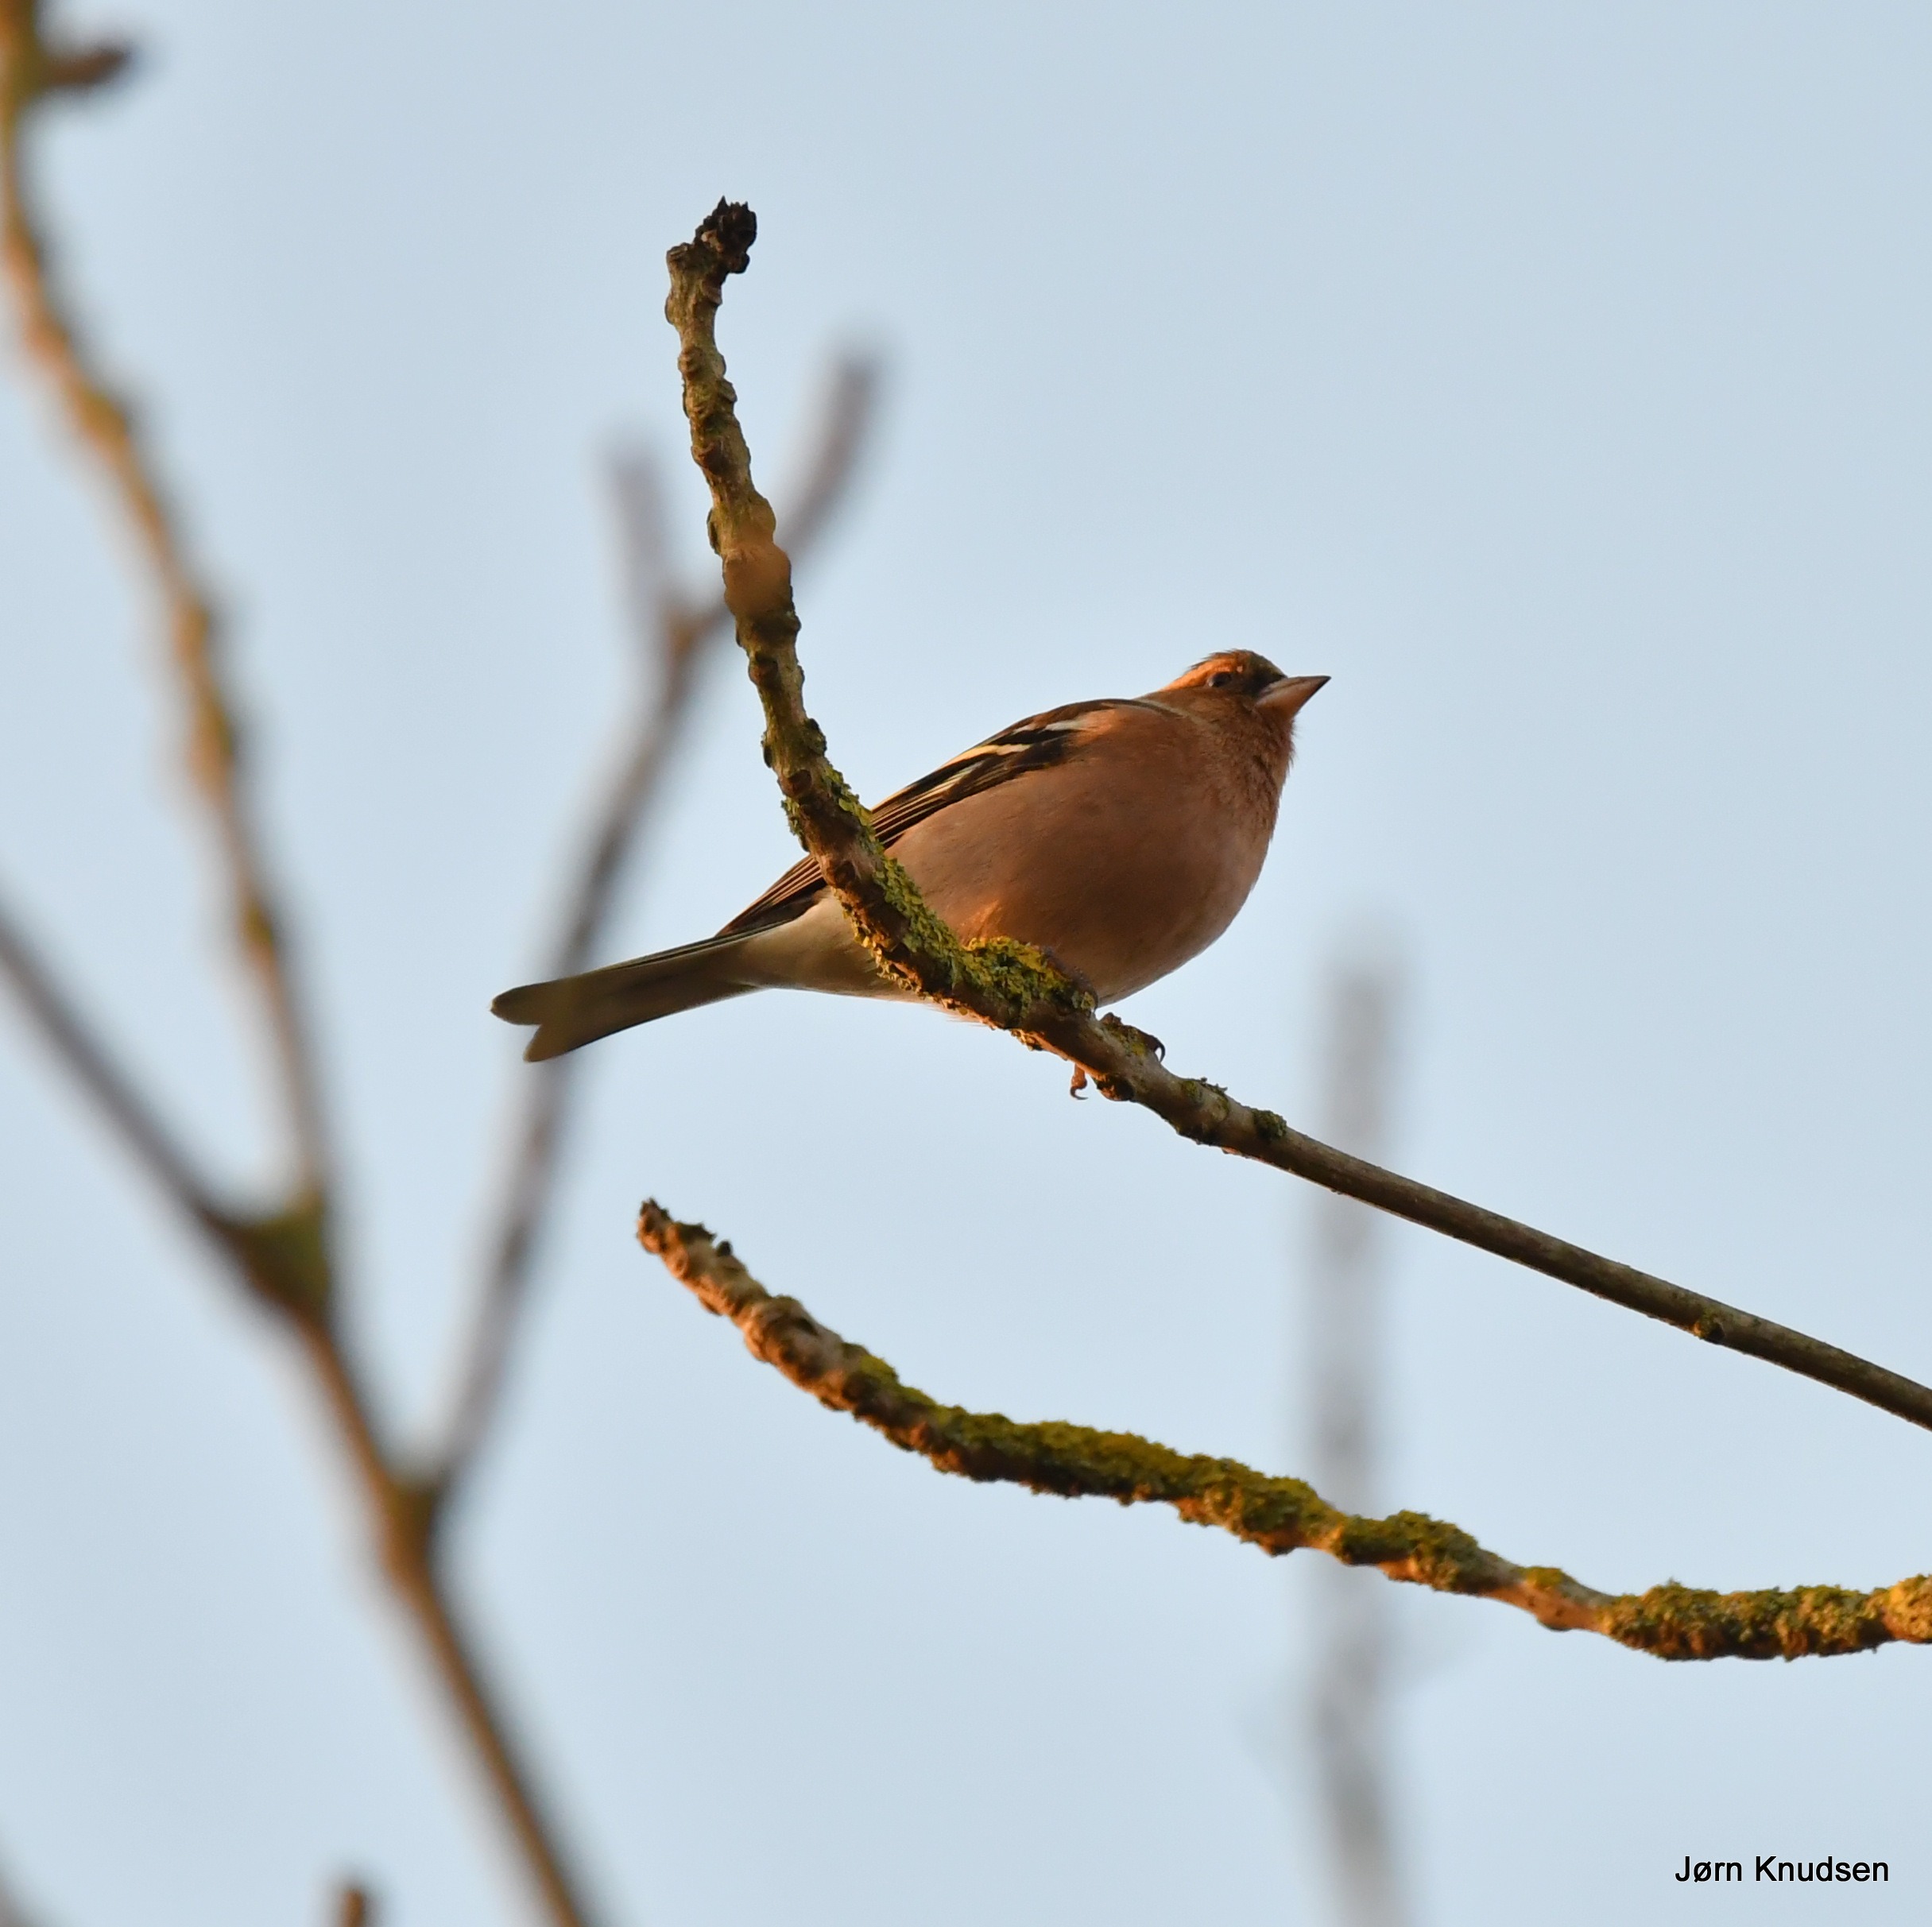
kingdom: Animalia
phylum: Chordata
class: Aves
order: Passeriformes
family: Fringillidae
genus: Fringilla
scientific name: Fringilla coelebs
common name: Bogfinke
